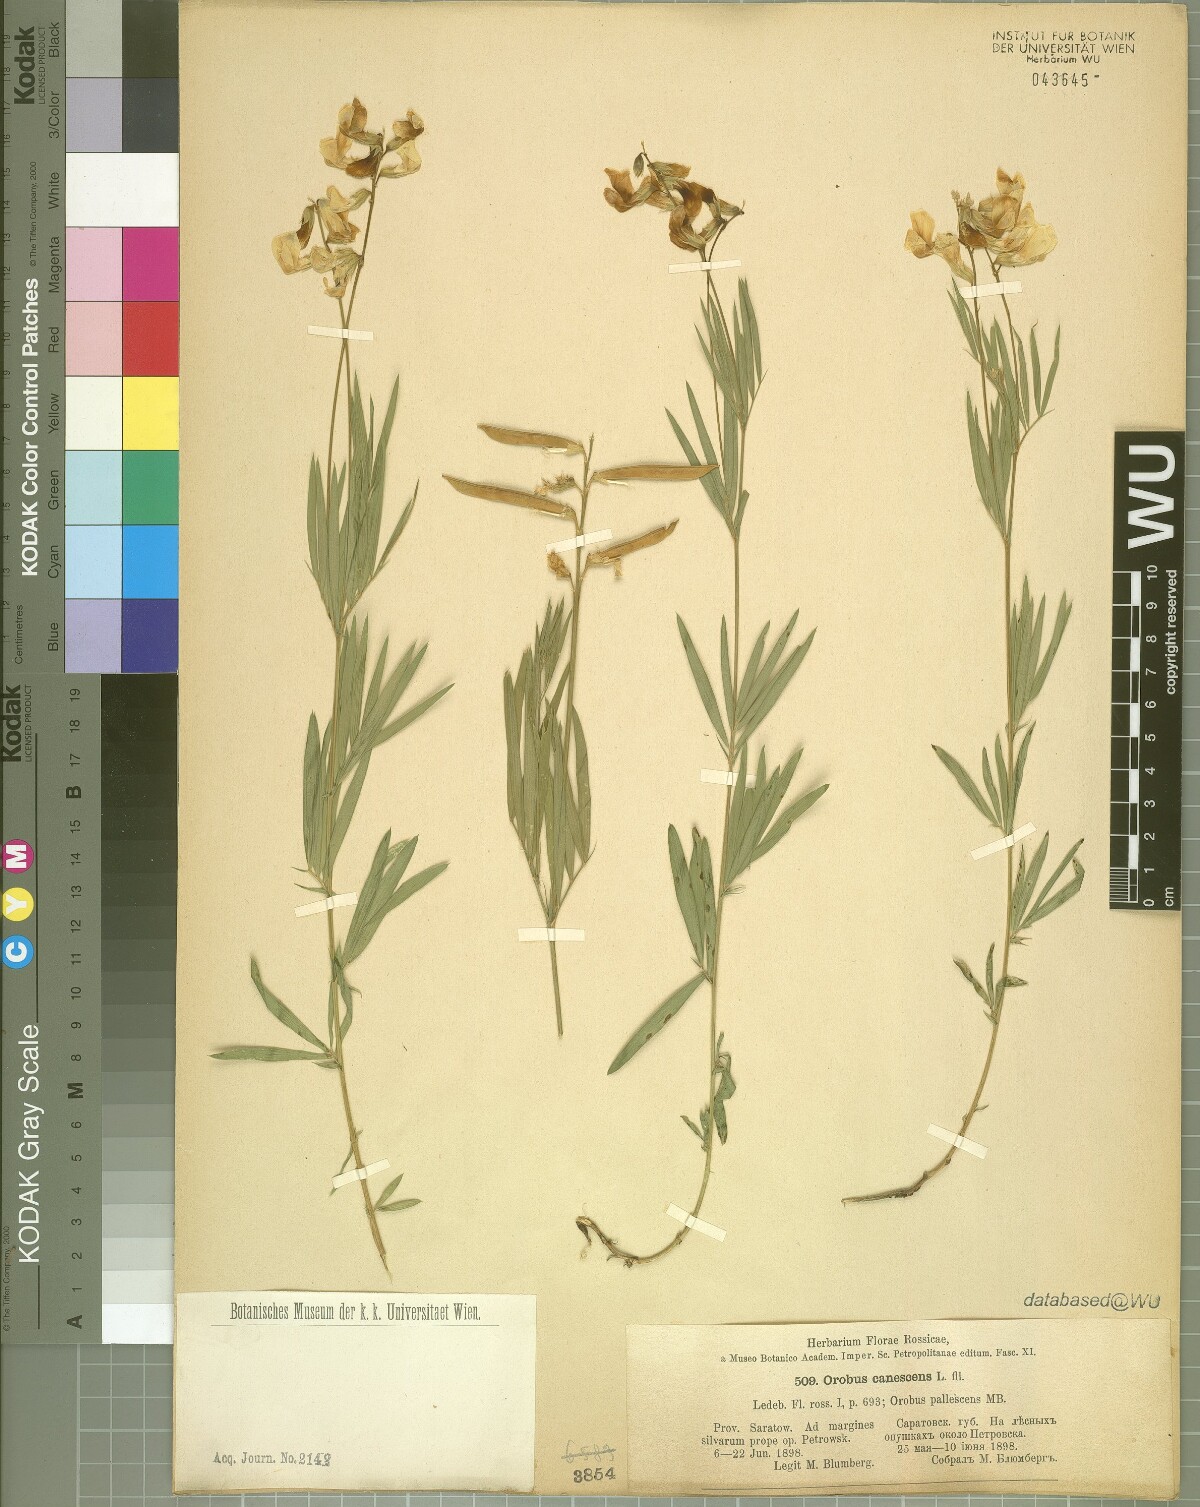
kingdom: Plantae
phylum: Tracheophyta
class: Magnoliopsida
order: Fabales
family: Fabaceae
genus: Lathyrus
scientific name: Lathyrus pallescens
